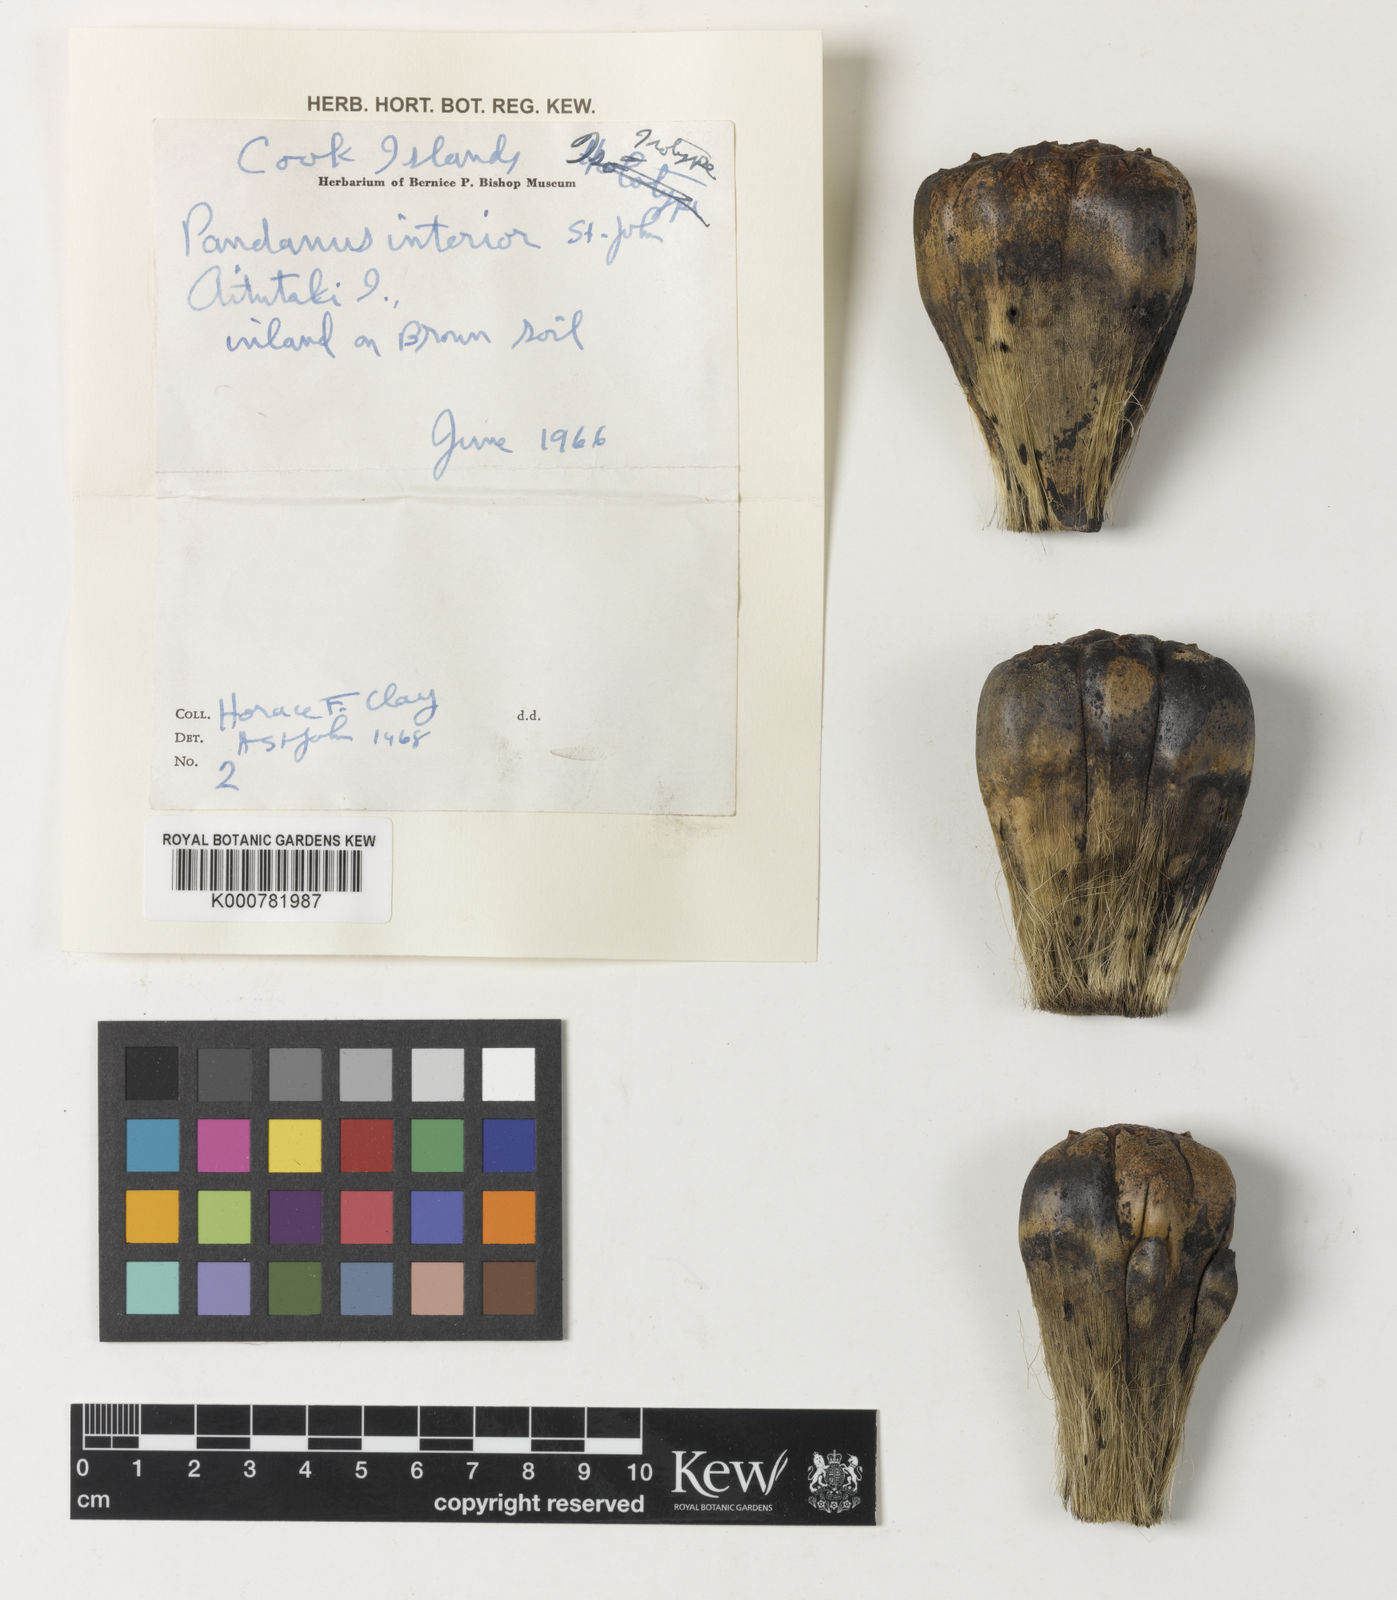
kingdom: Plantae
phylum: Tracheophyta
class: Liliopsida
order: Pandanales
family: Pandanaceae
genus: Pandanus
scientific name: Pandanus tectorius
